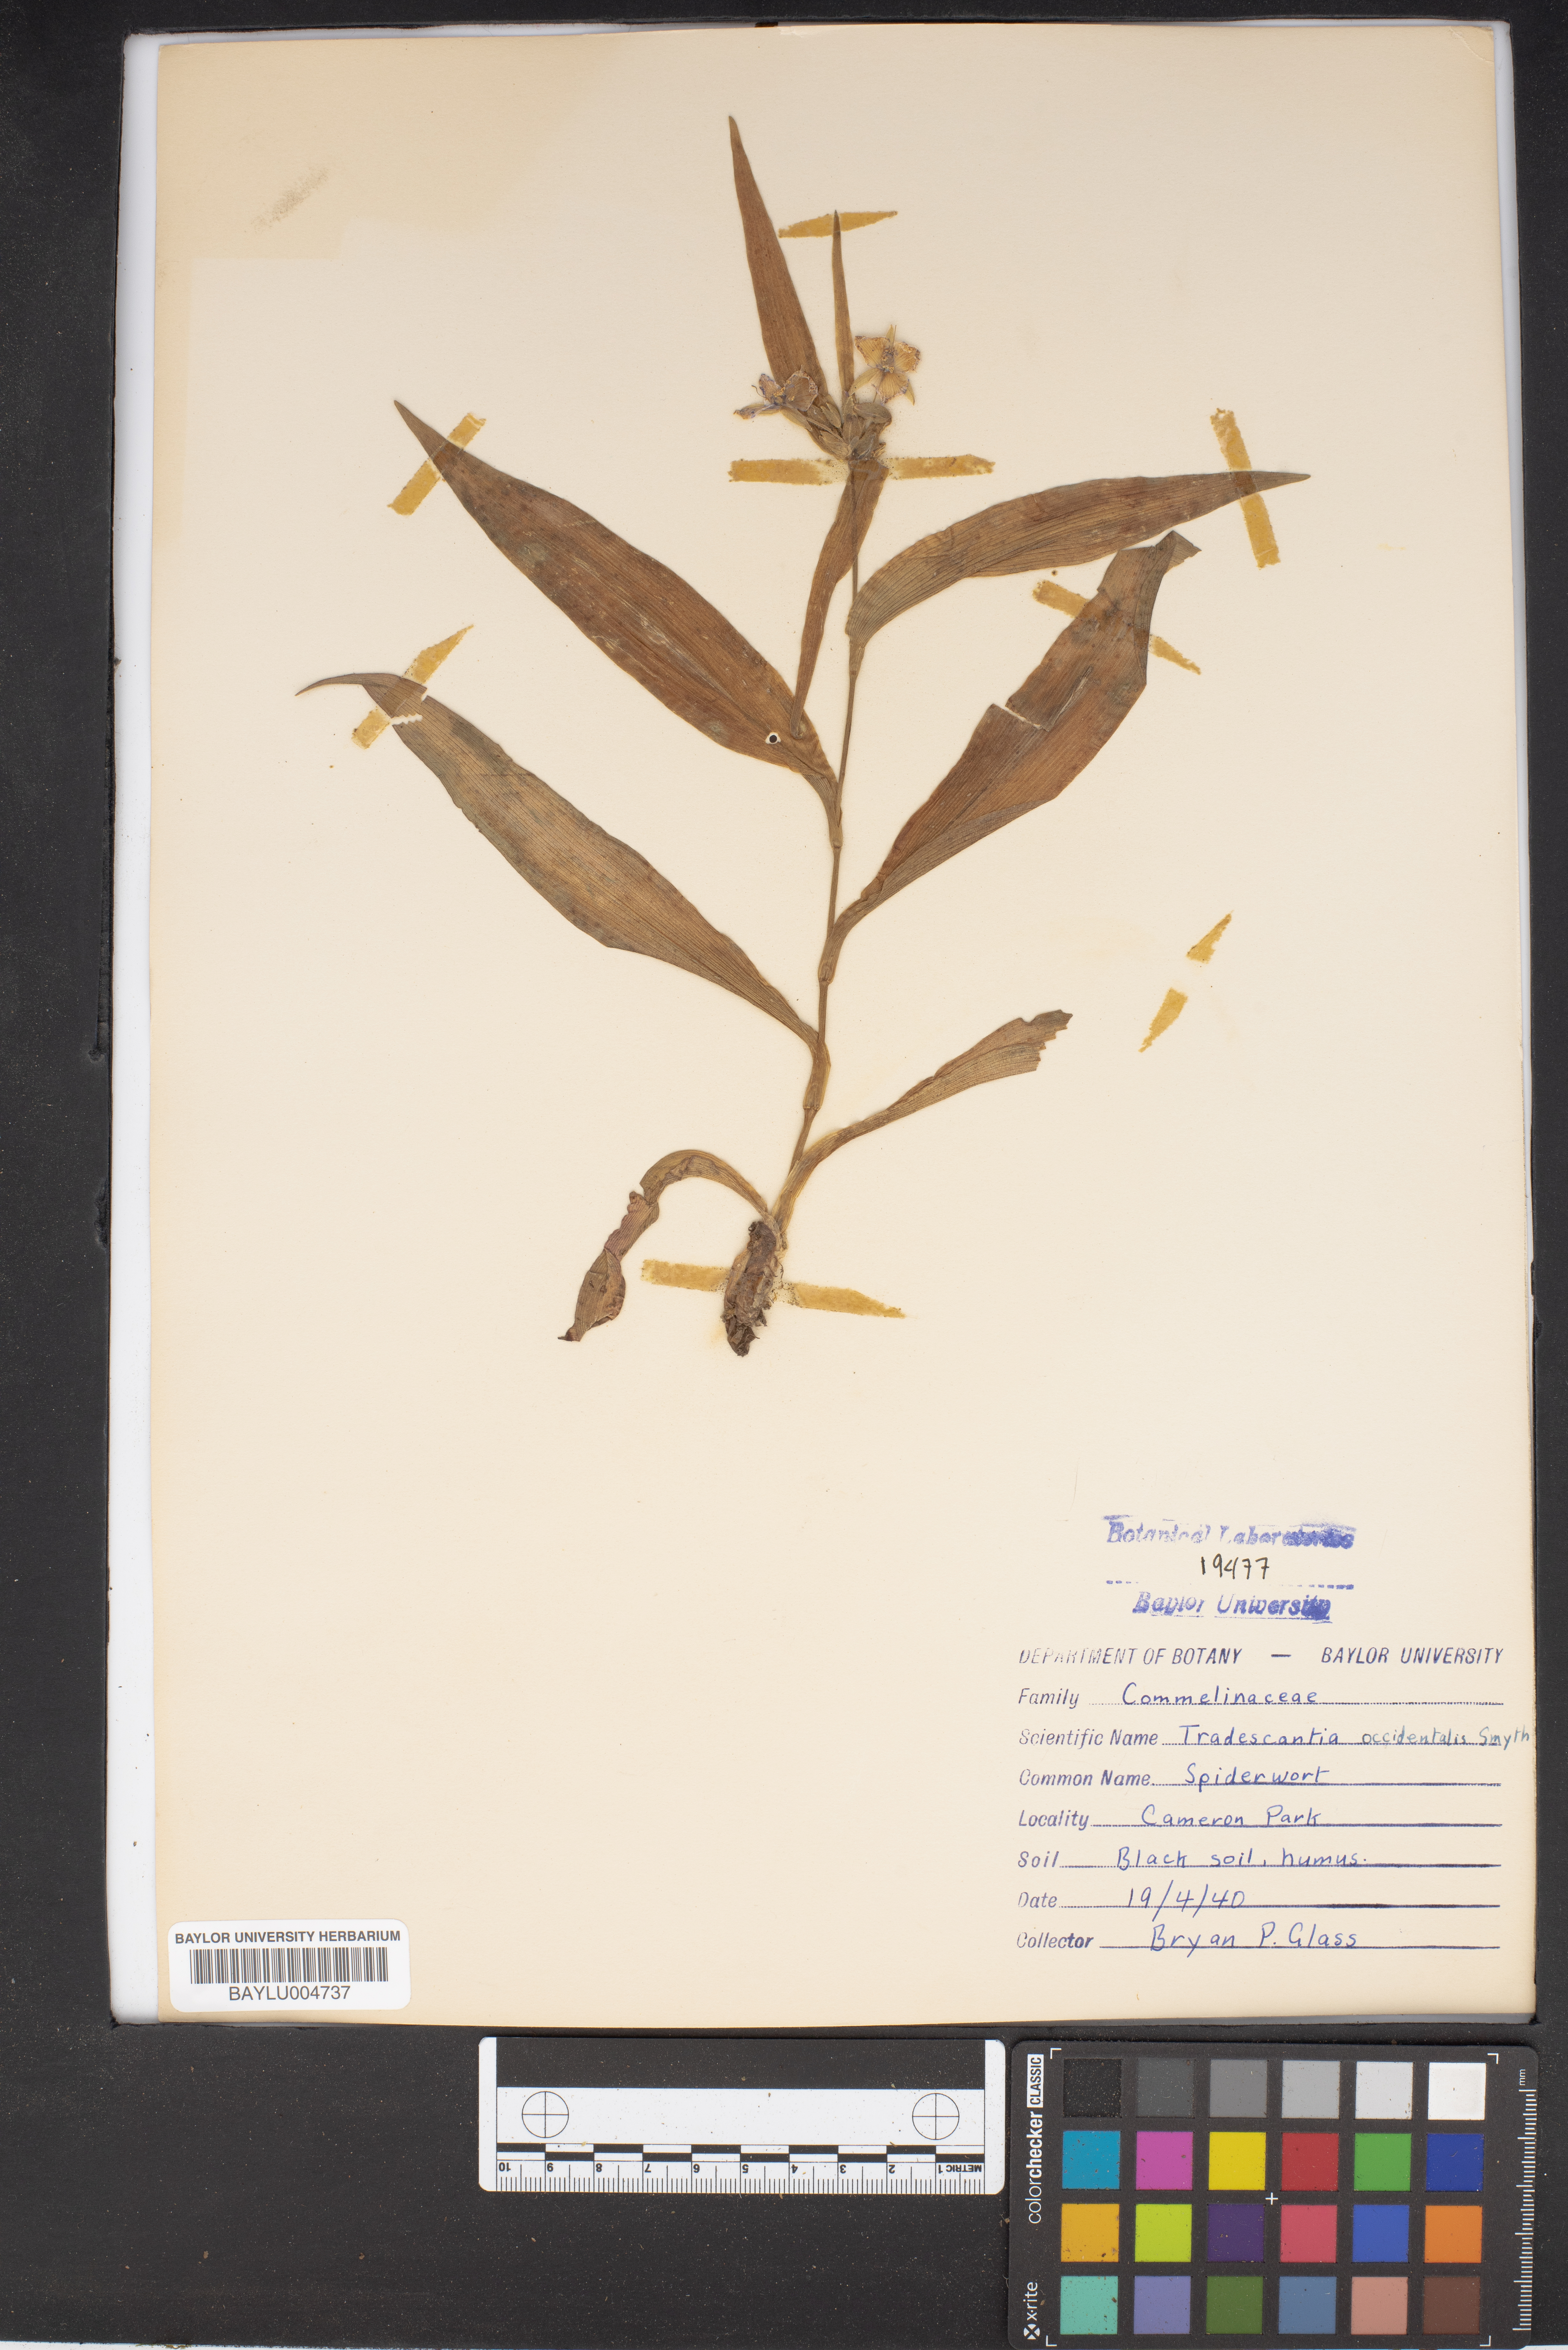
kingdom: Plantae
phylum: Tracheophyta
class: Liliopsida
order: Commelinales
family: Commelinaceae
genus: Tradescantia
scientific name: Tradescantia occidentalis
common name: Prairie spiderwort
